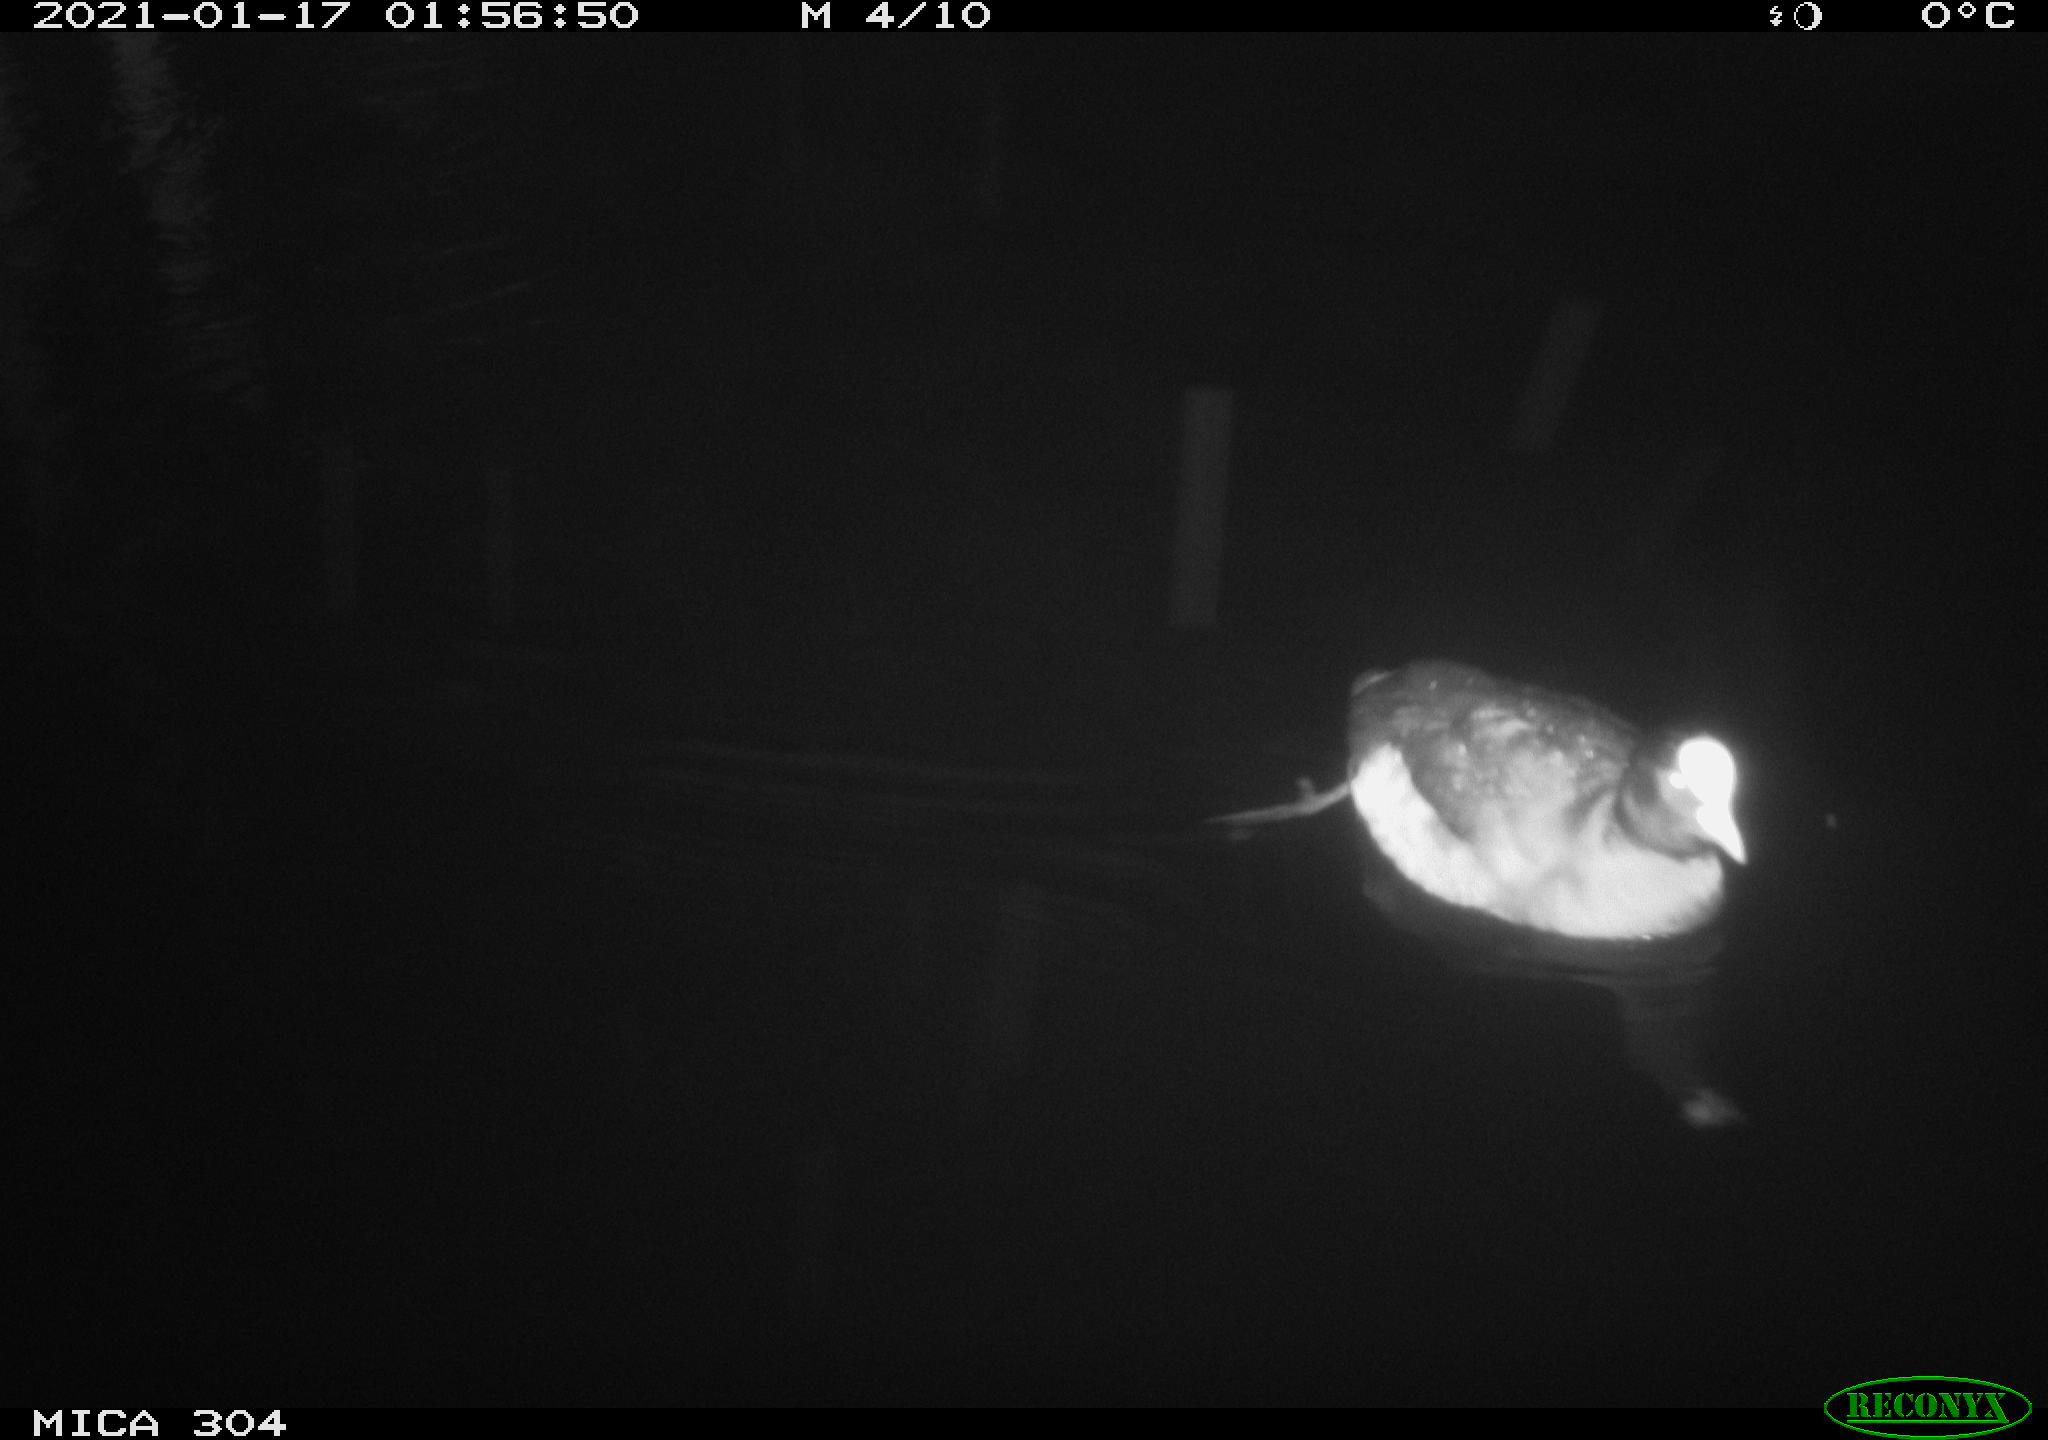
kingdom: Animalia
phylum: Chordata
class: Aves
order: Gruiformes
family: Rallidae
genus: Fulica
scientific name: Fulica atra
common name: Eurasian coot
